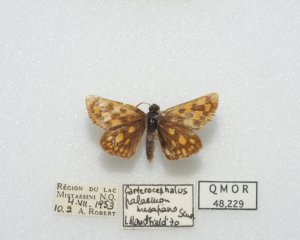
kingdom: Animalia
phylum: Arthropoda
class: Insecta
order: Lepidoptera
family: Hesperiidae
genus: Carterocephalus
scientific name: Carterocephalus palaemon
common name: Chequered Skipper
